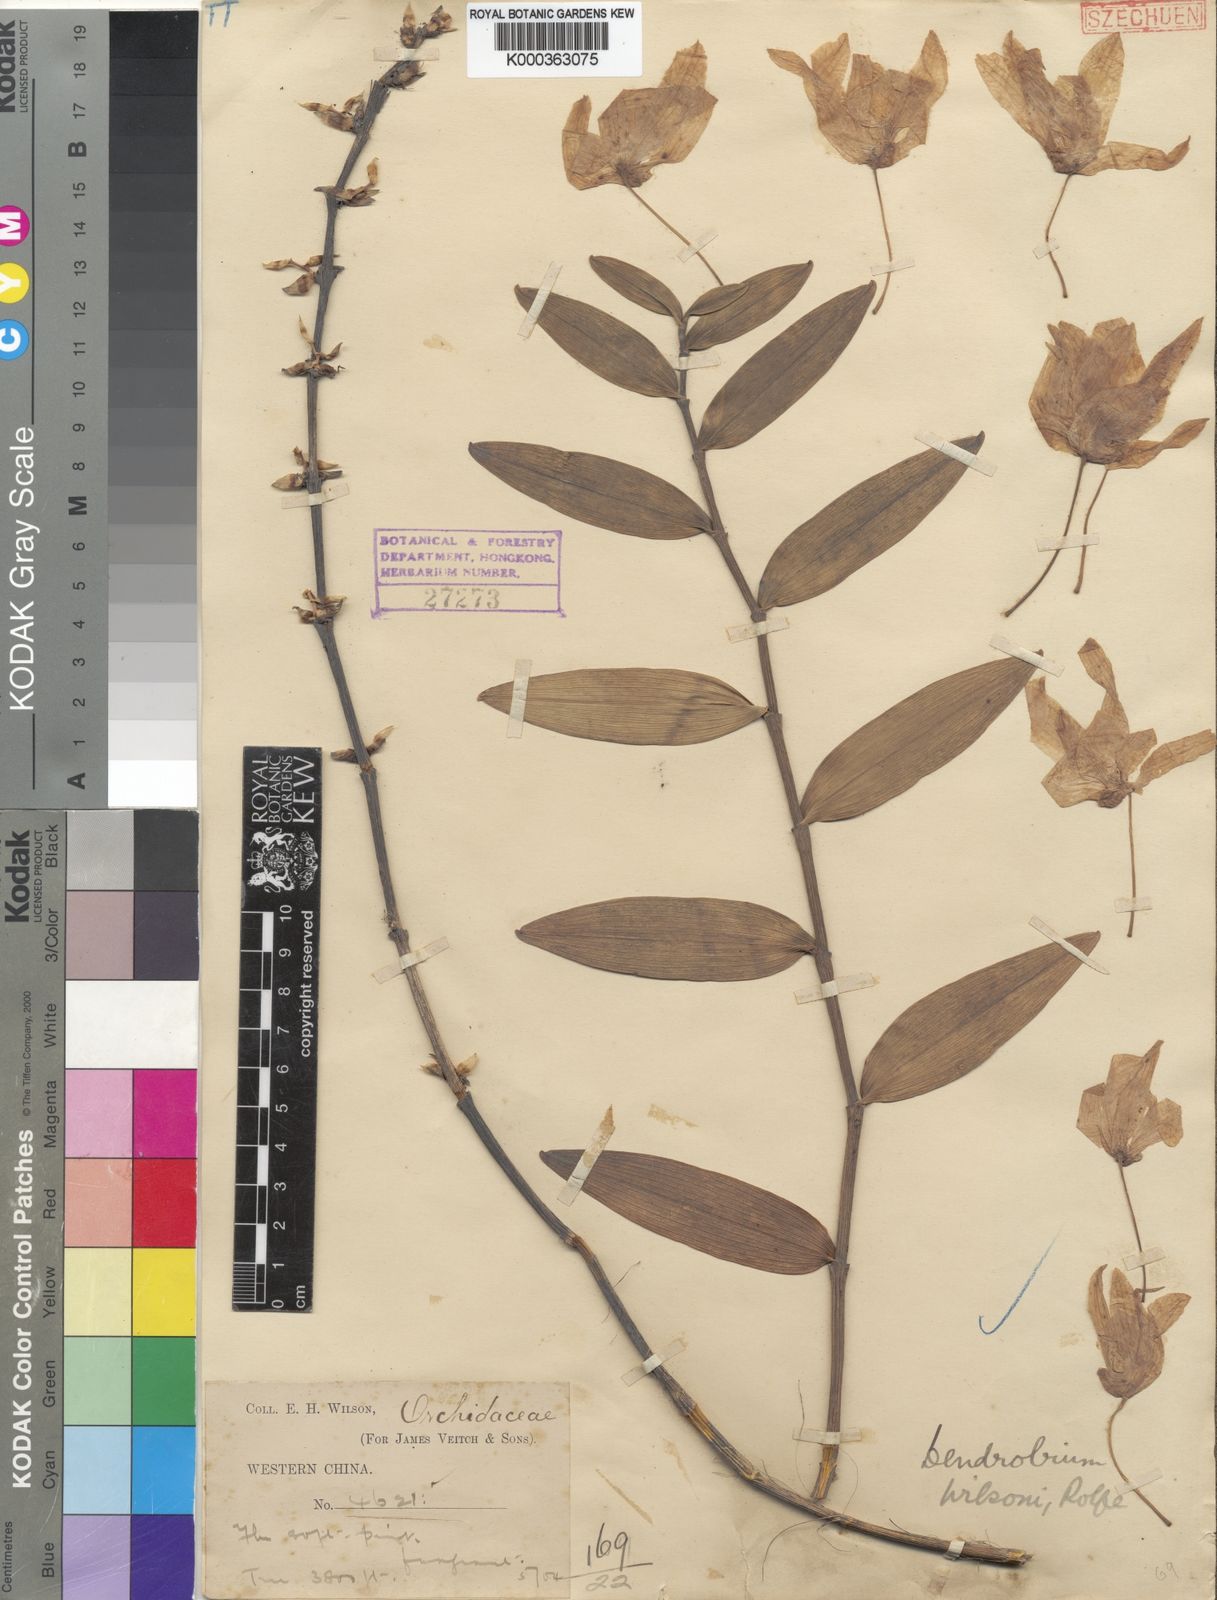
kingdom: Plantae
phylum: Tracheophyta
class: Liliopsida
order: Asparagales
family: Orchidaceae
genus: Dendrobium
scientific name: Dendrobium wilsonii
